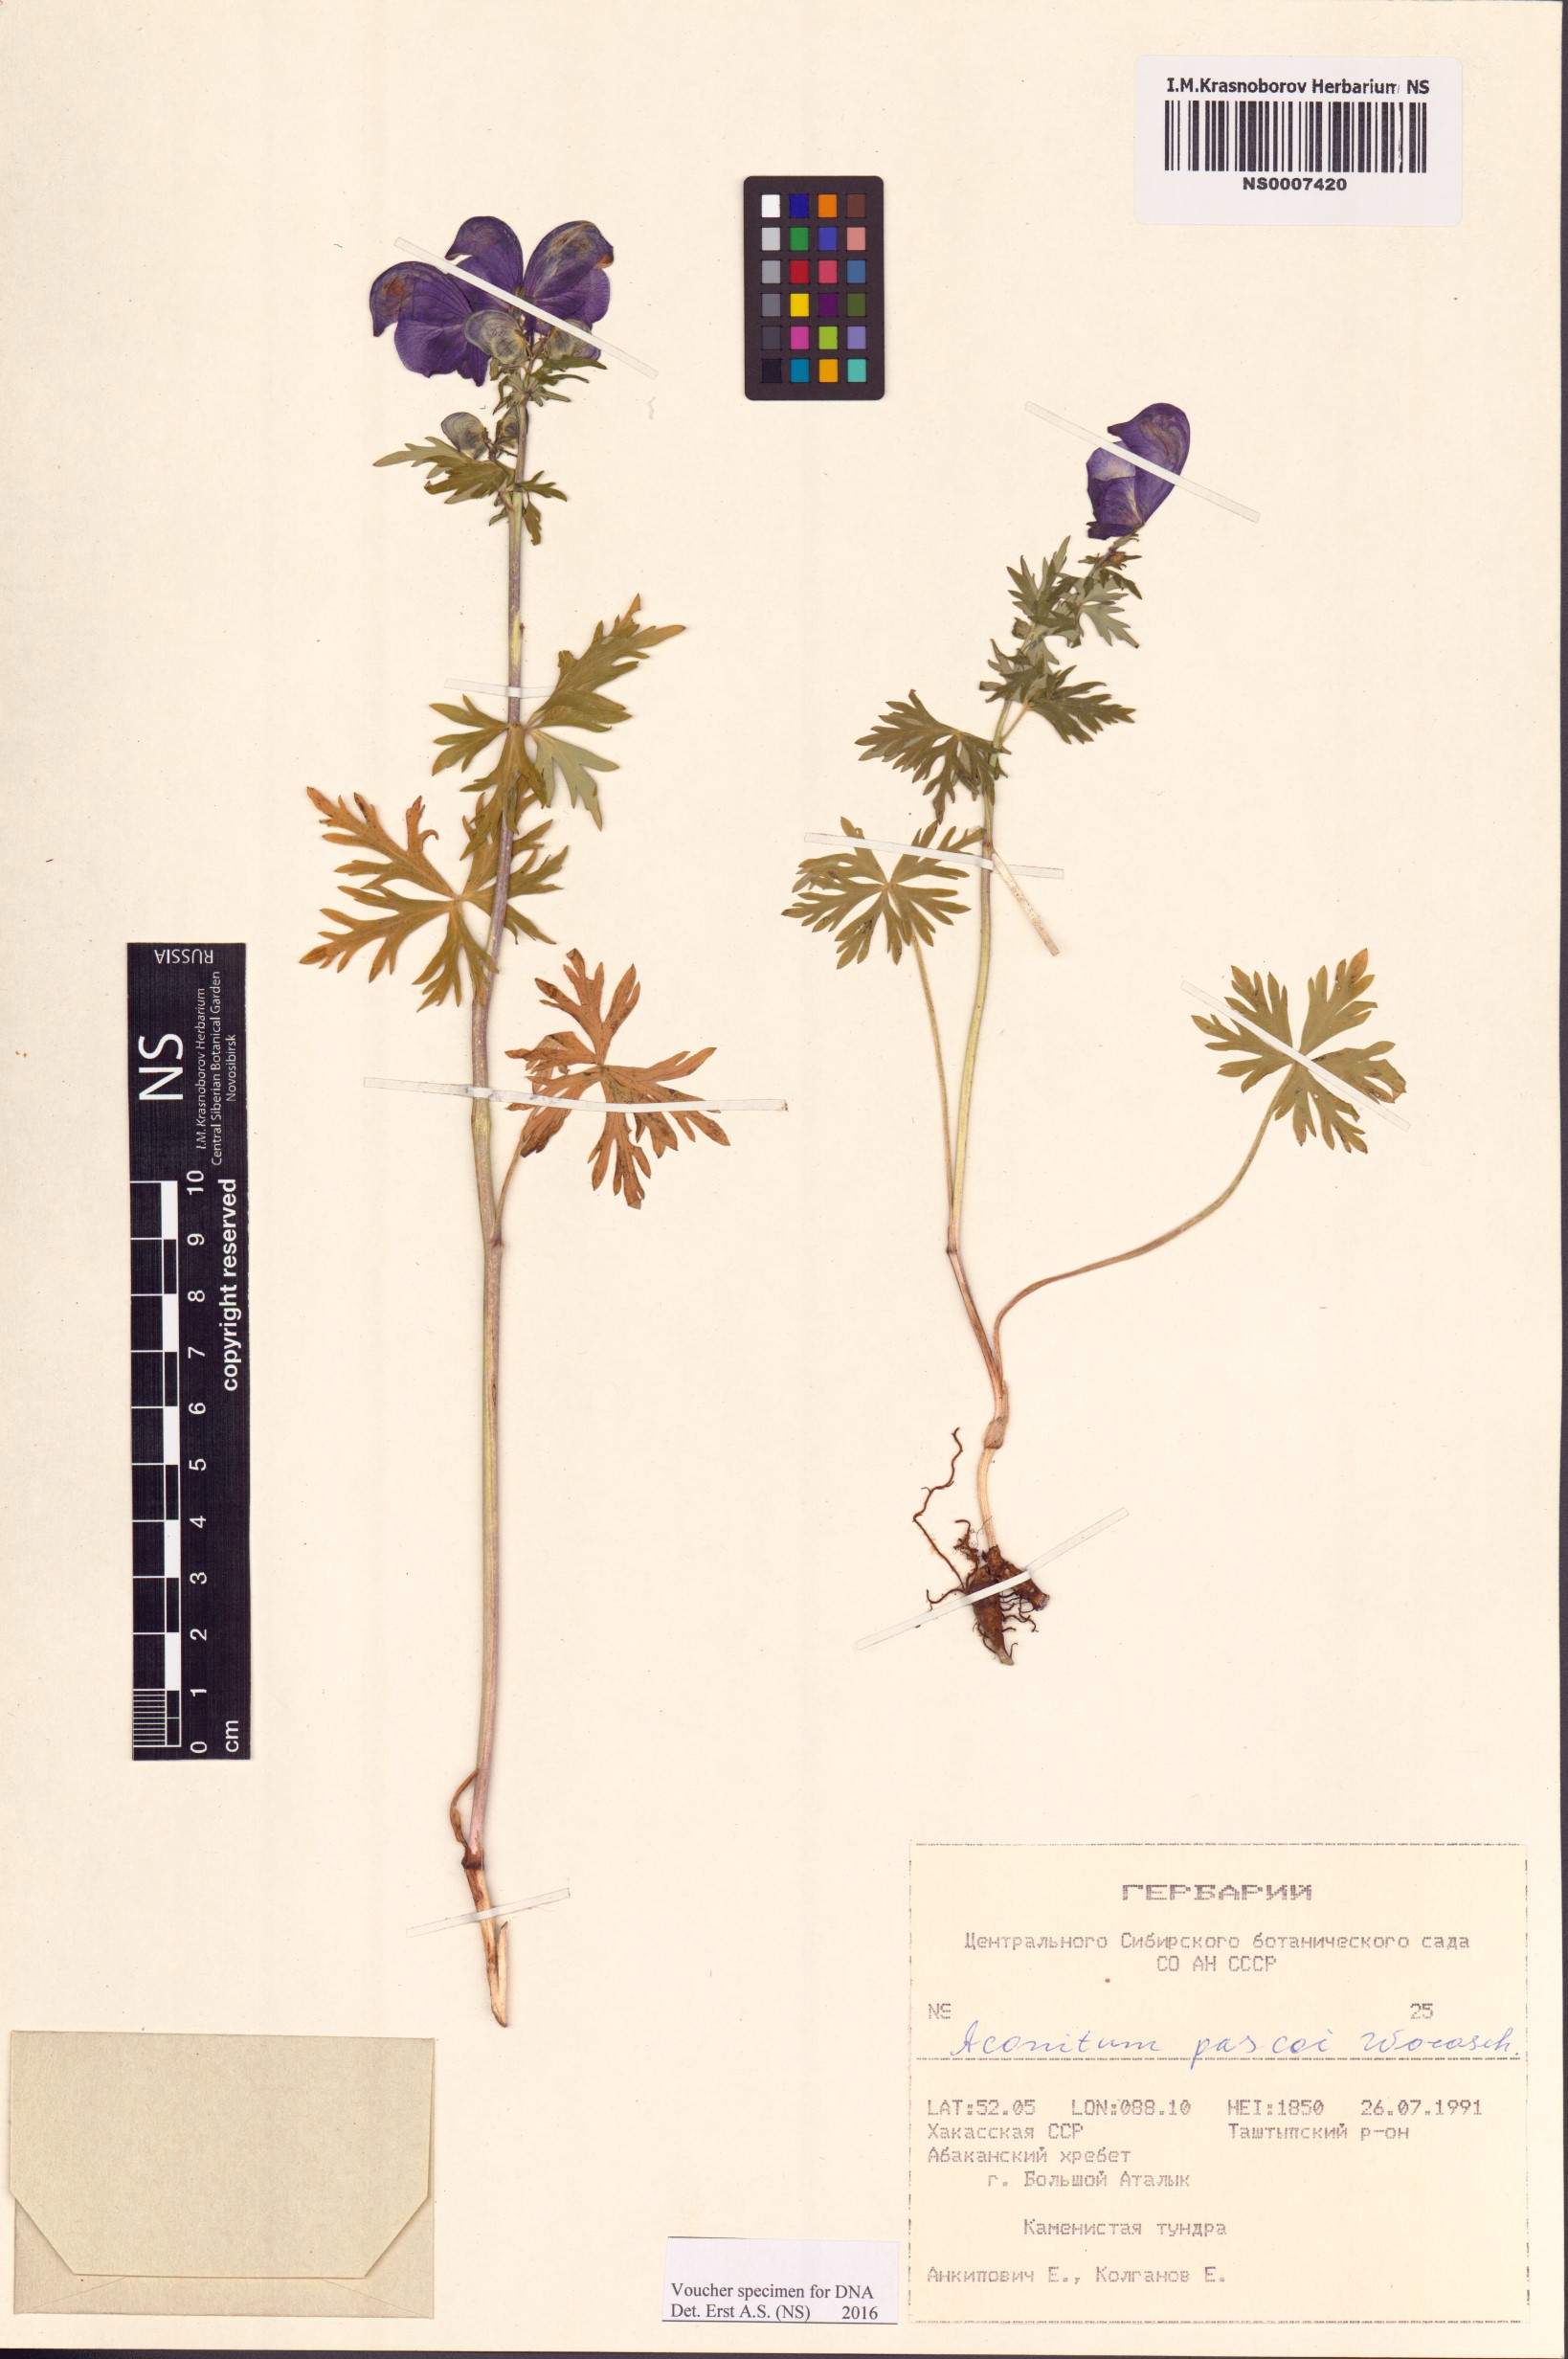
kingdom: Plantae
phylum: Tracheophyta
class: Magnoliopsida
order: Ranunculales
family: Ranunculaceae
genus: Aconitum
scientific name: Aconitum pascoi
